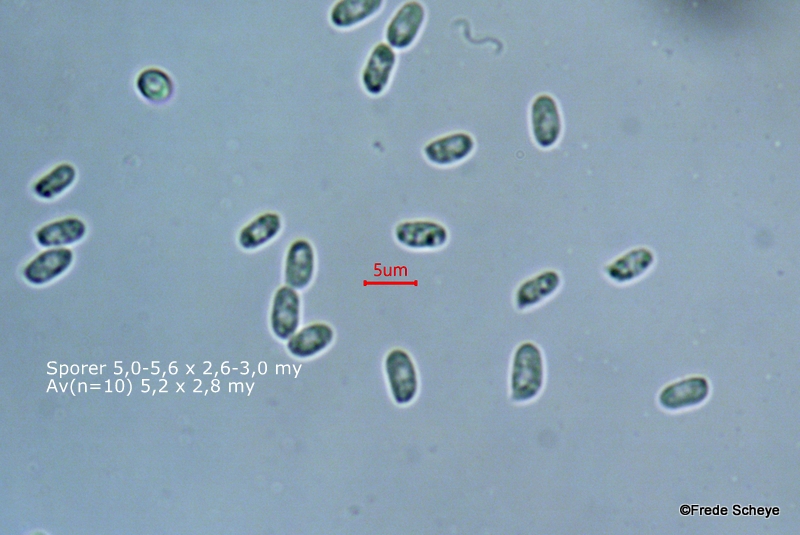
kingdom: Fungi
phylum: Basidiomycota
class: Agaricomycetes
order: Agaricales
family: Mycenaceae
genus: Mycena
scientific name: Mycena tintinnabulum
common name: vinter-huesvamp
